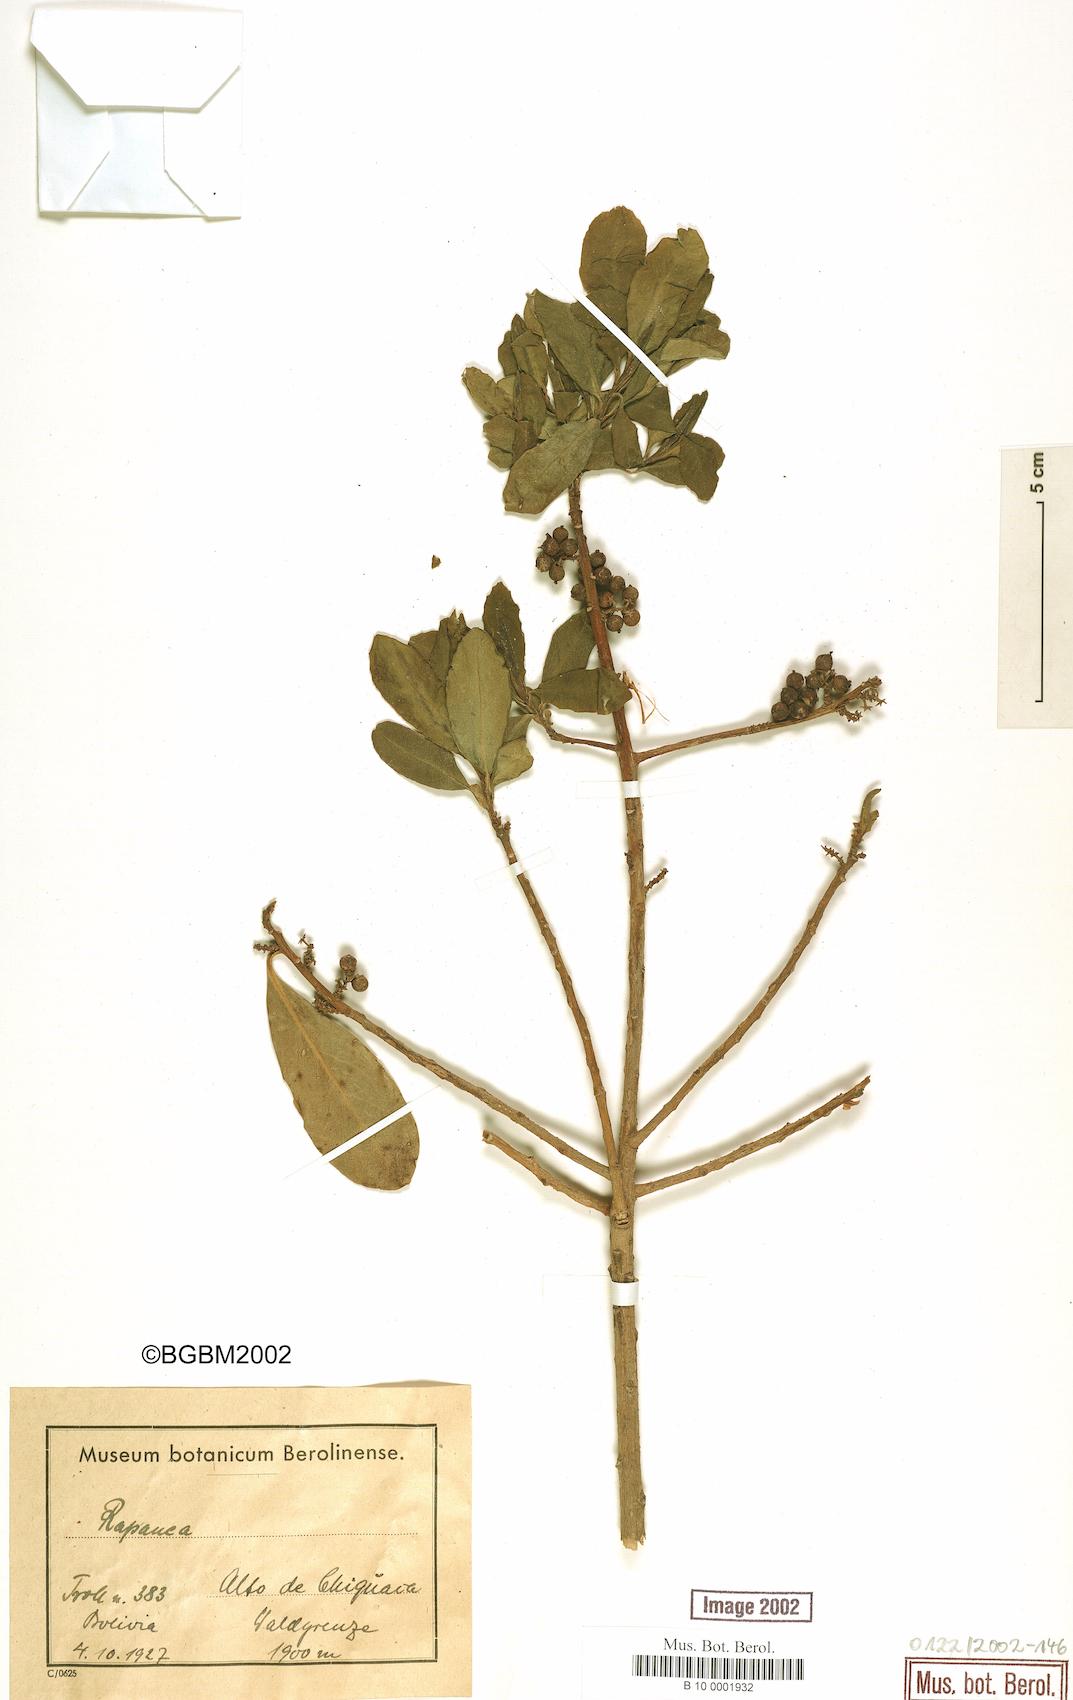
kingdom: Plantae
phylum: Tracheophyta
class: Magnoliopsida
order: Ericales
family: Primulaceae
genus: Myrsine
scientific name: Myrsine
